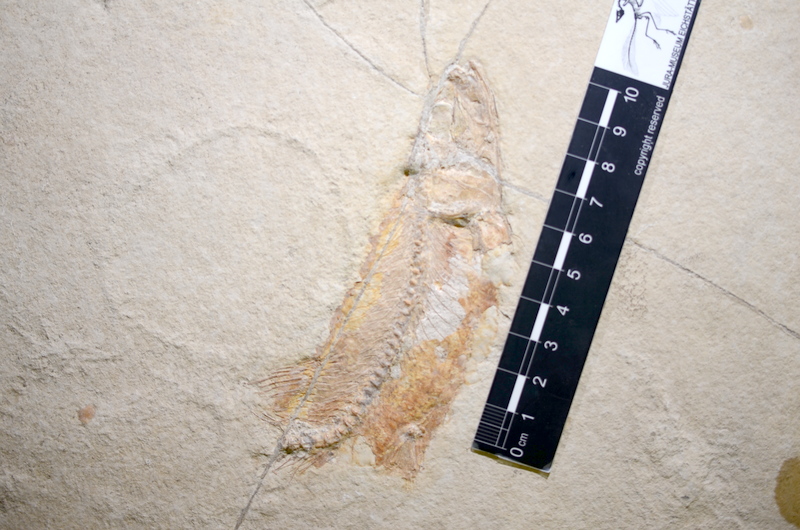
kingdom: Animalia
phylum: Chordata
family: Ascalaboidae
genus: Tharsis
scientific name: Tharsis dubius
